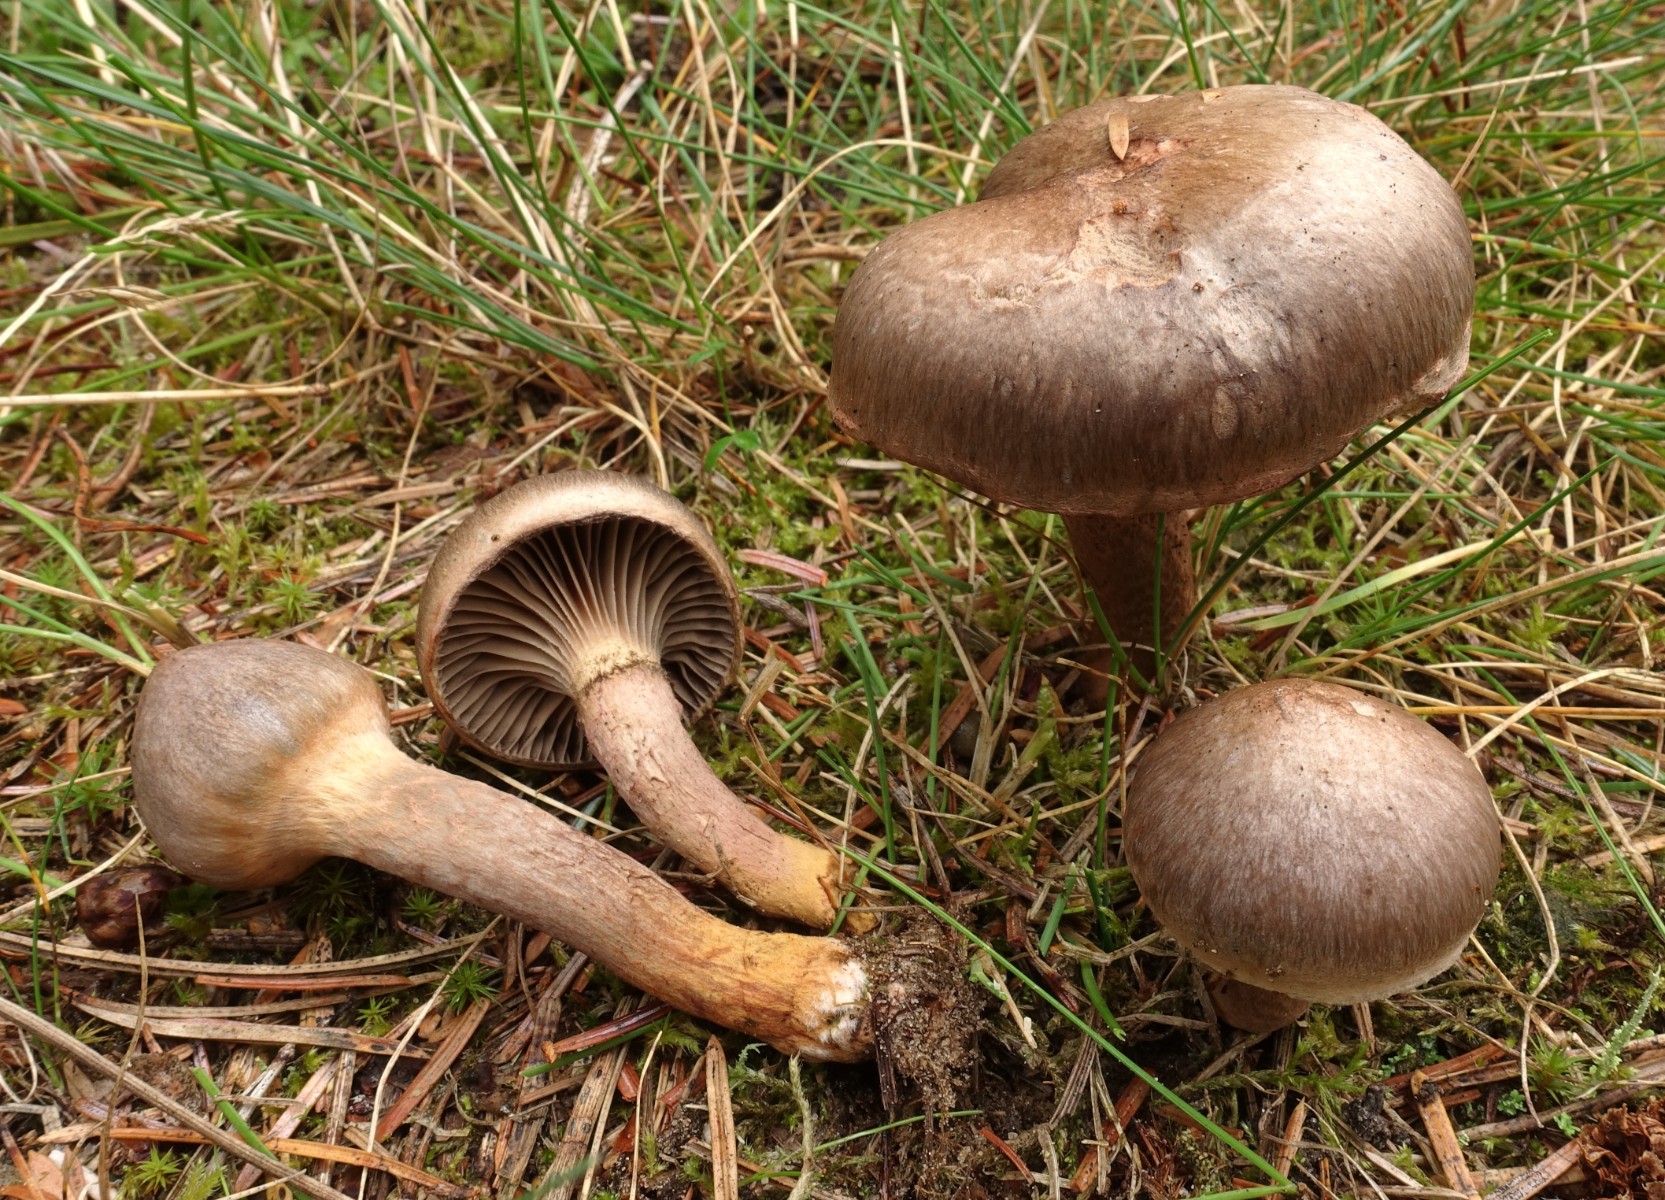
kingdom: Fungi
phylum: Basidiomycota
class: Agaricomycetes
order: Boletales
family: Gomphidiaceae
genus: Chroogomphus
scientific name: Chroogomphus rutilus
